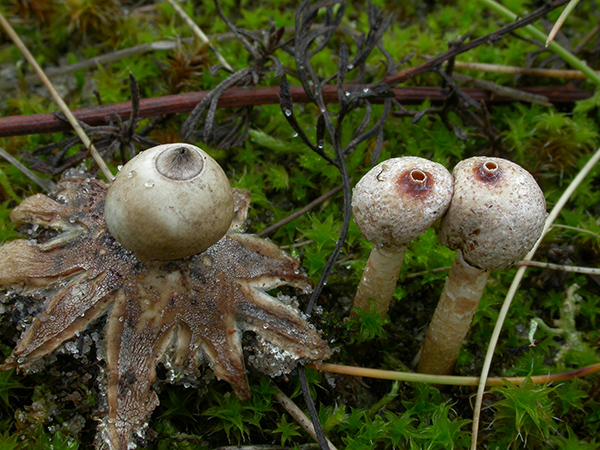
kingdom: Fungi
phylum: Basidiomycota
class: Agaricomycetes
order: Geastrales
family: Geastraceae
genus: Geastrum
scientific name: Geastrum minimum
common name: liden stjernebold
